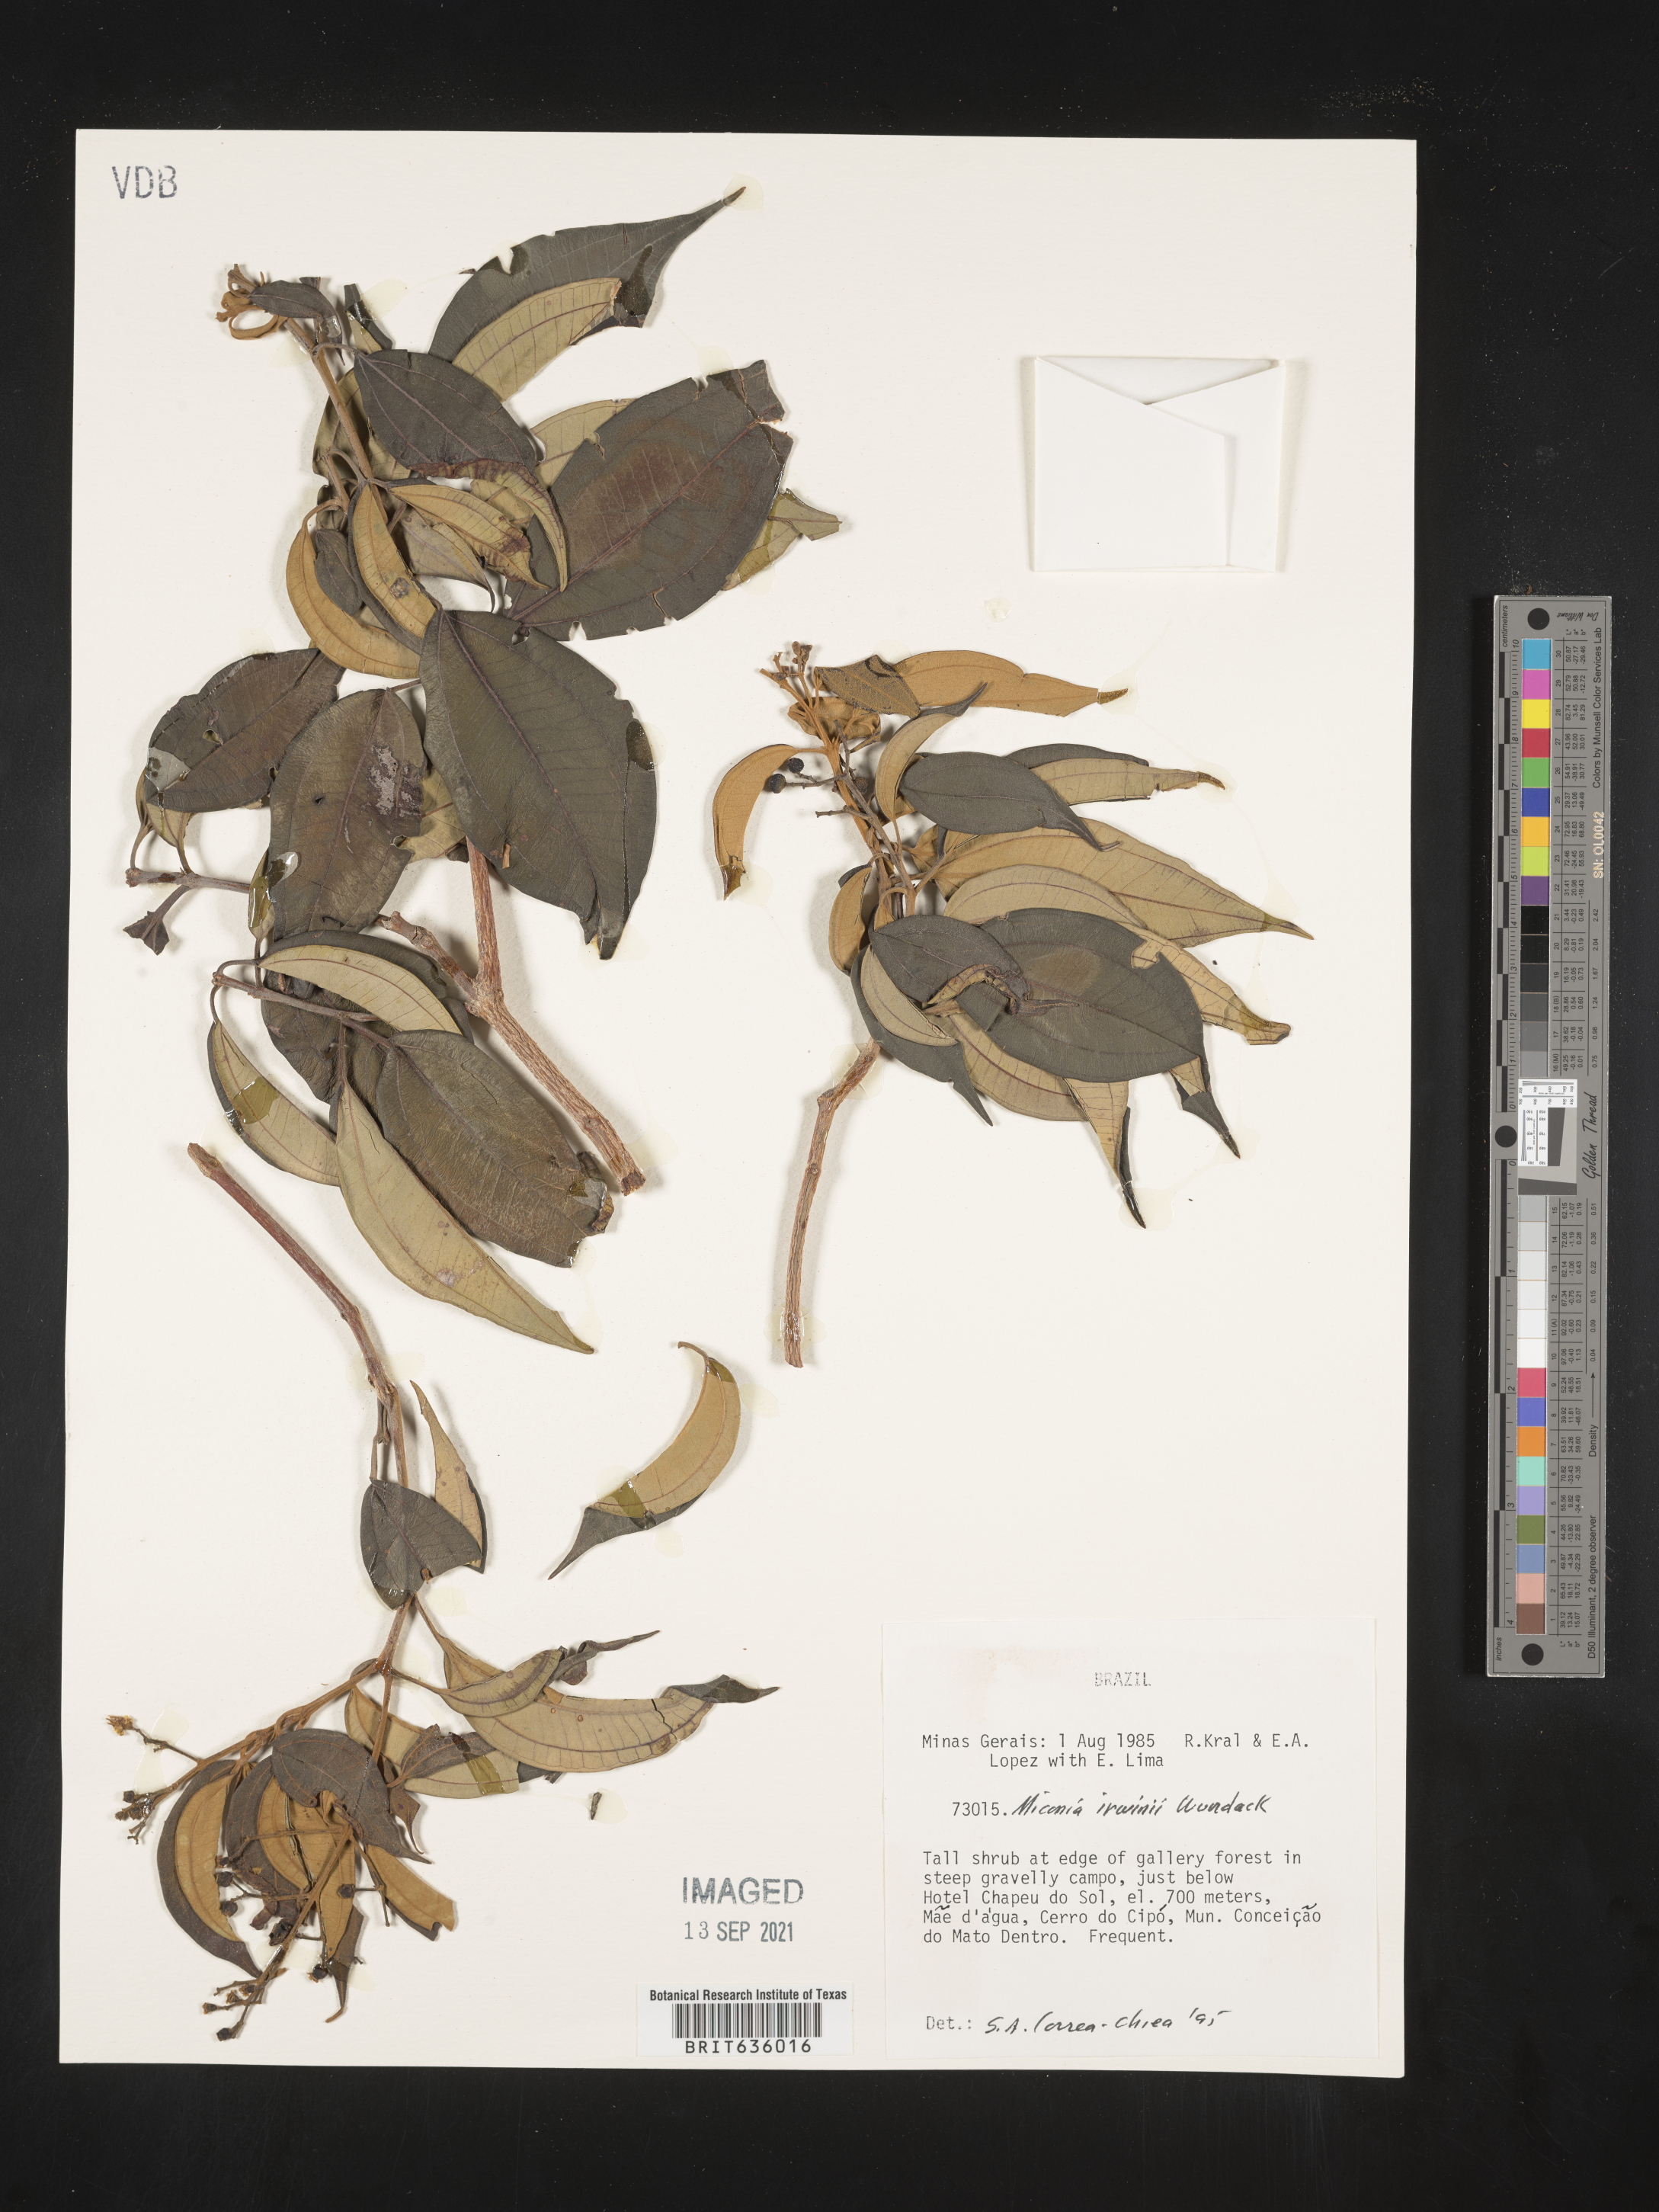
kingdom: Plantae
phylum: Tracheophyta
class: Magnoliopsida
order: Myrtales
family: Melastomataceae
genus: Miconia
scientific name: Miconia
